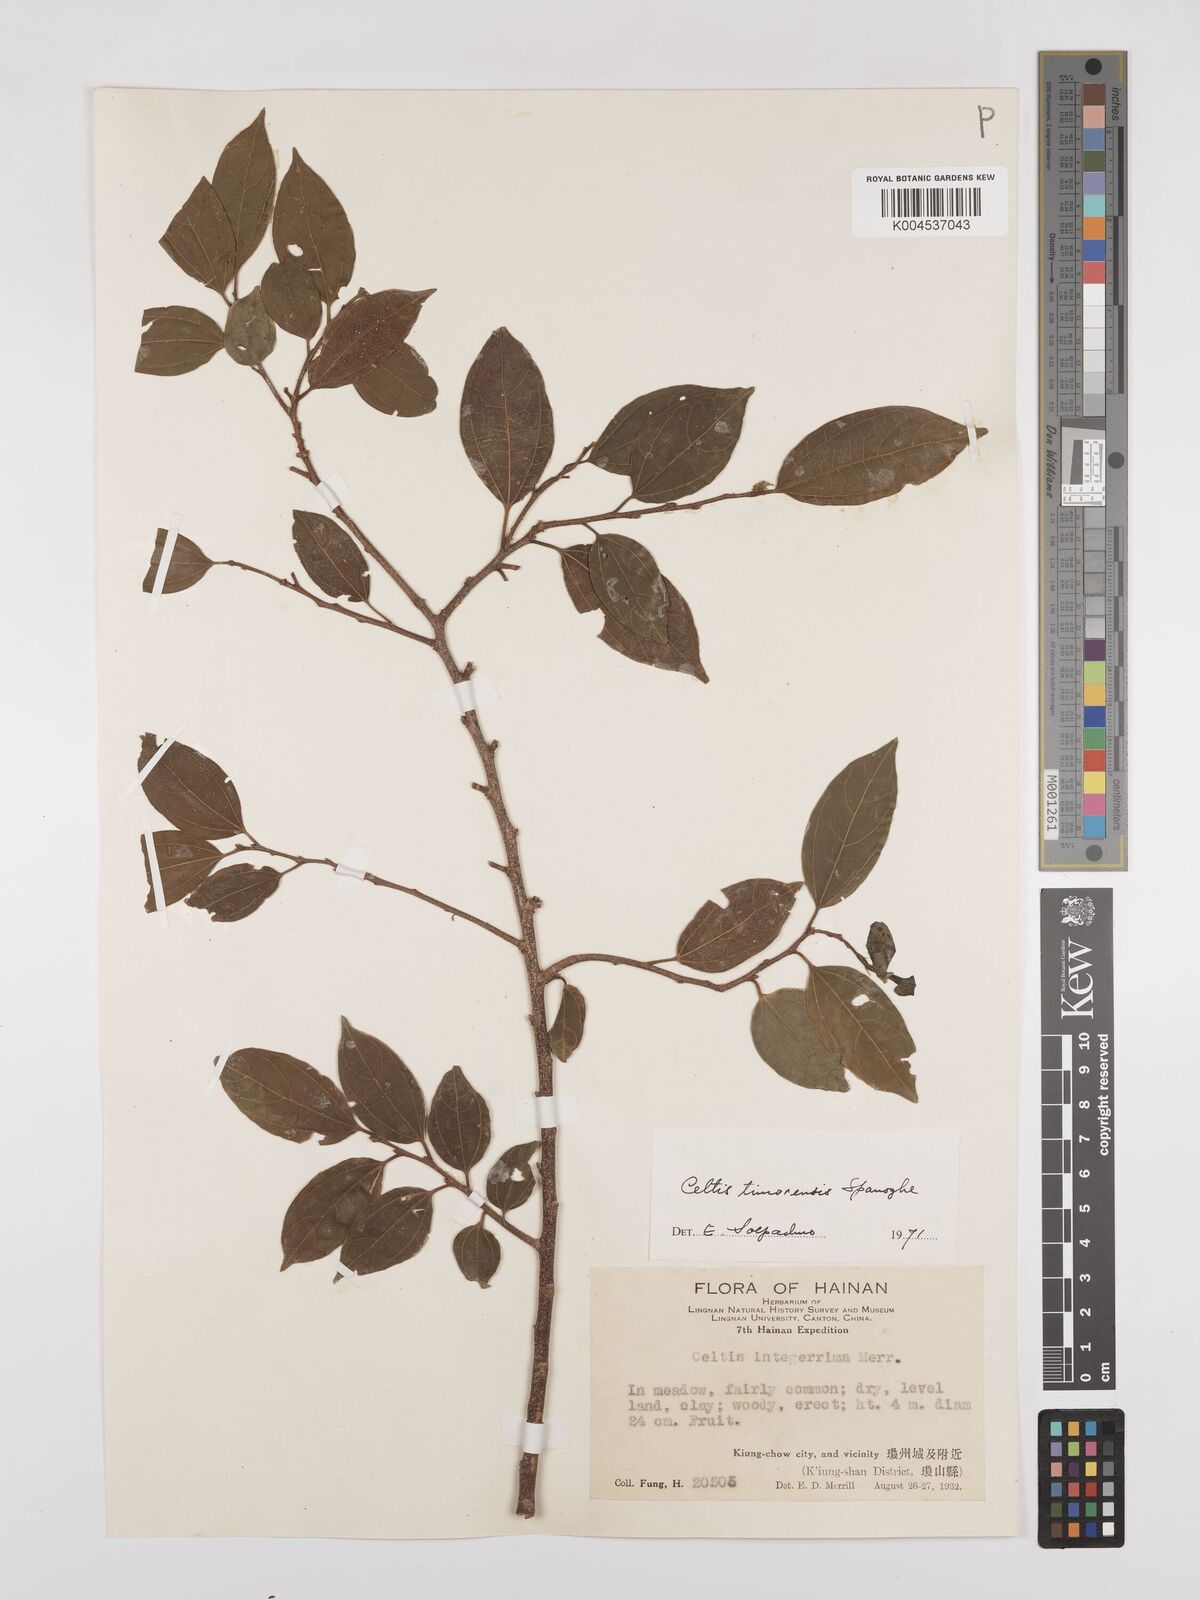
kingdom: Plantae
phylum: Tracheophyta
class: Magnoliopsida
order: Rosales
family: Cannabaceae
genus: Celtis
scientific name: Celtis timorensis
